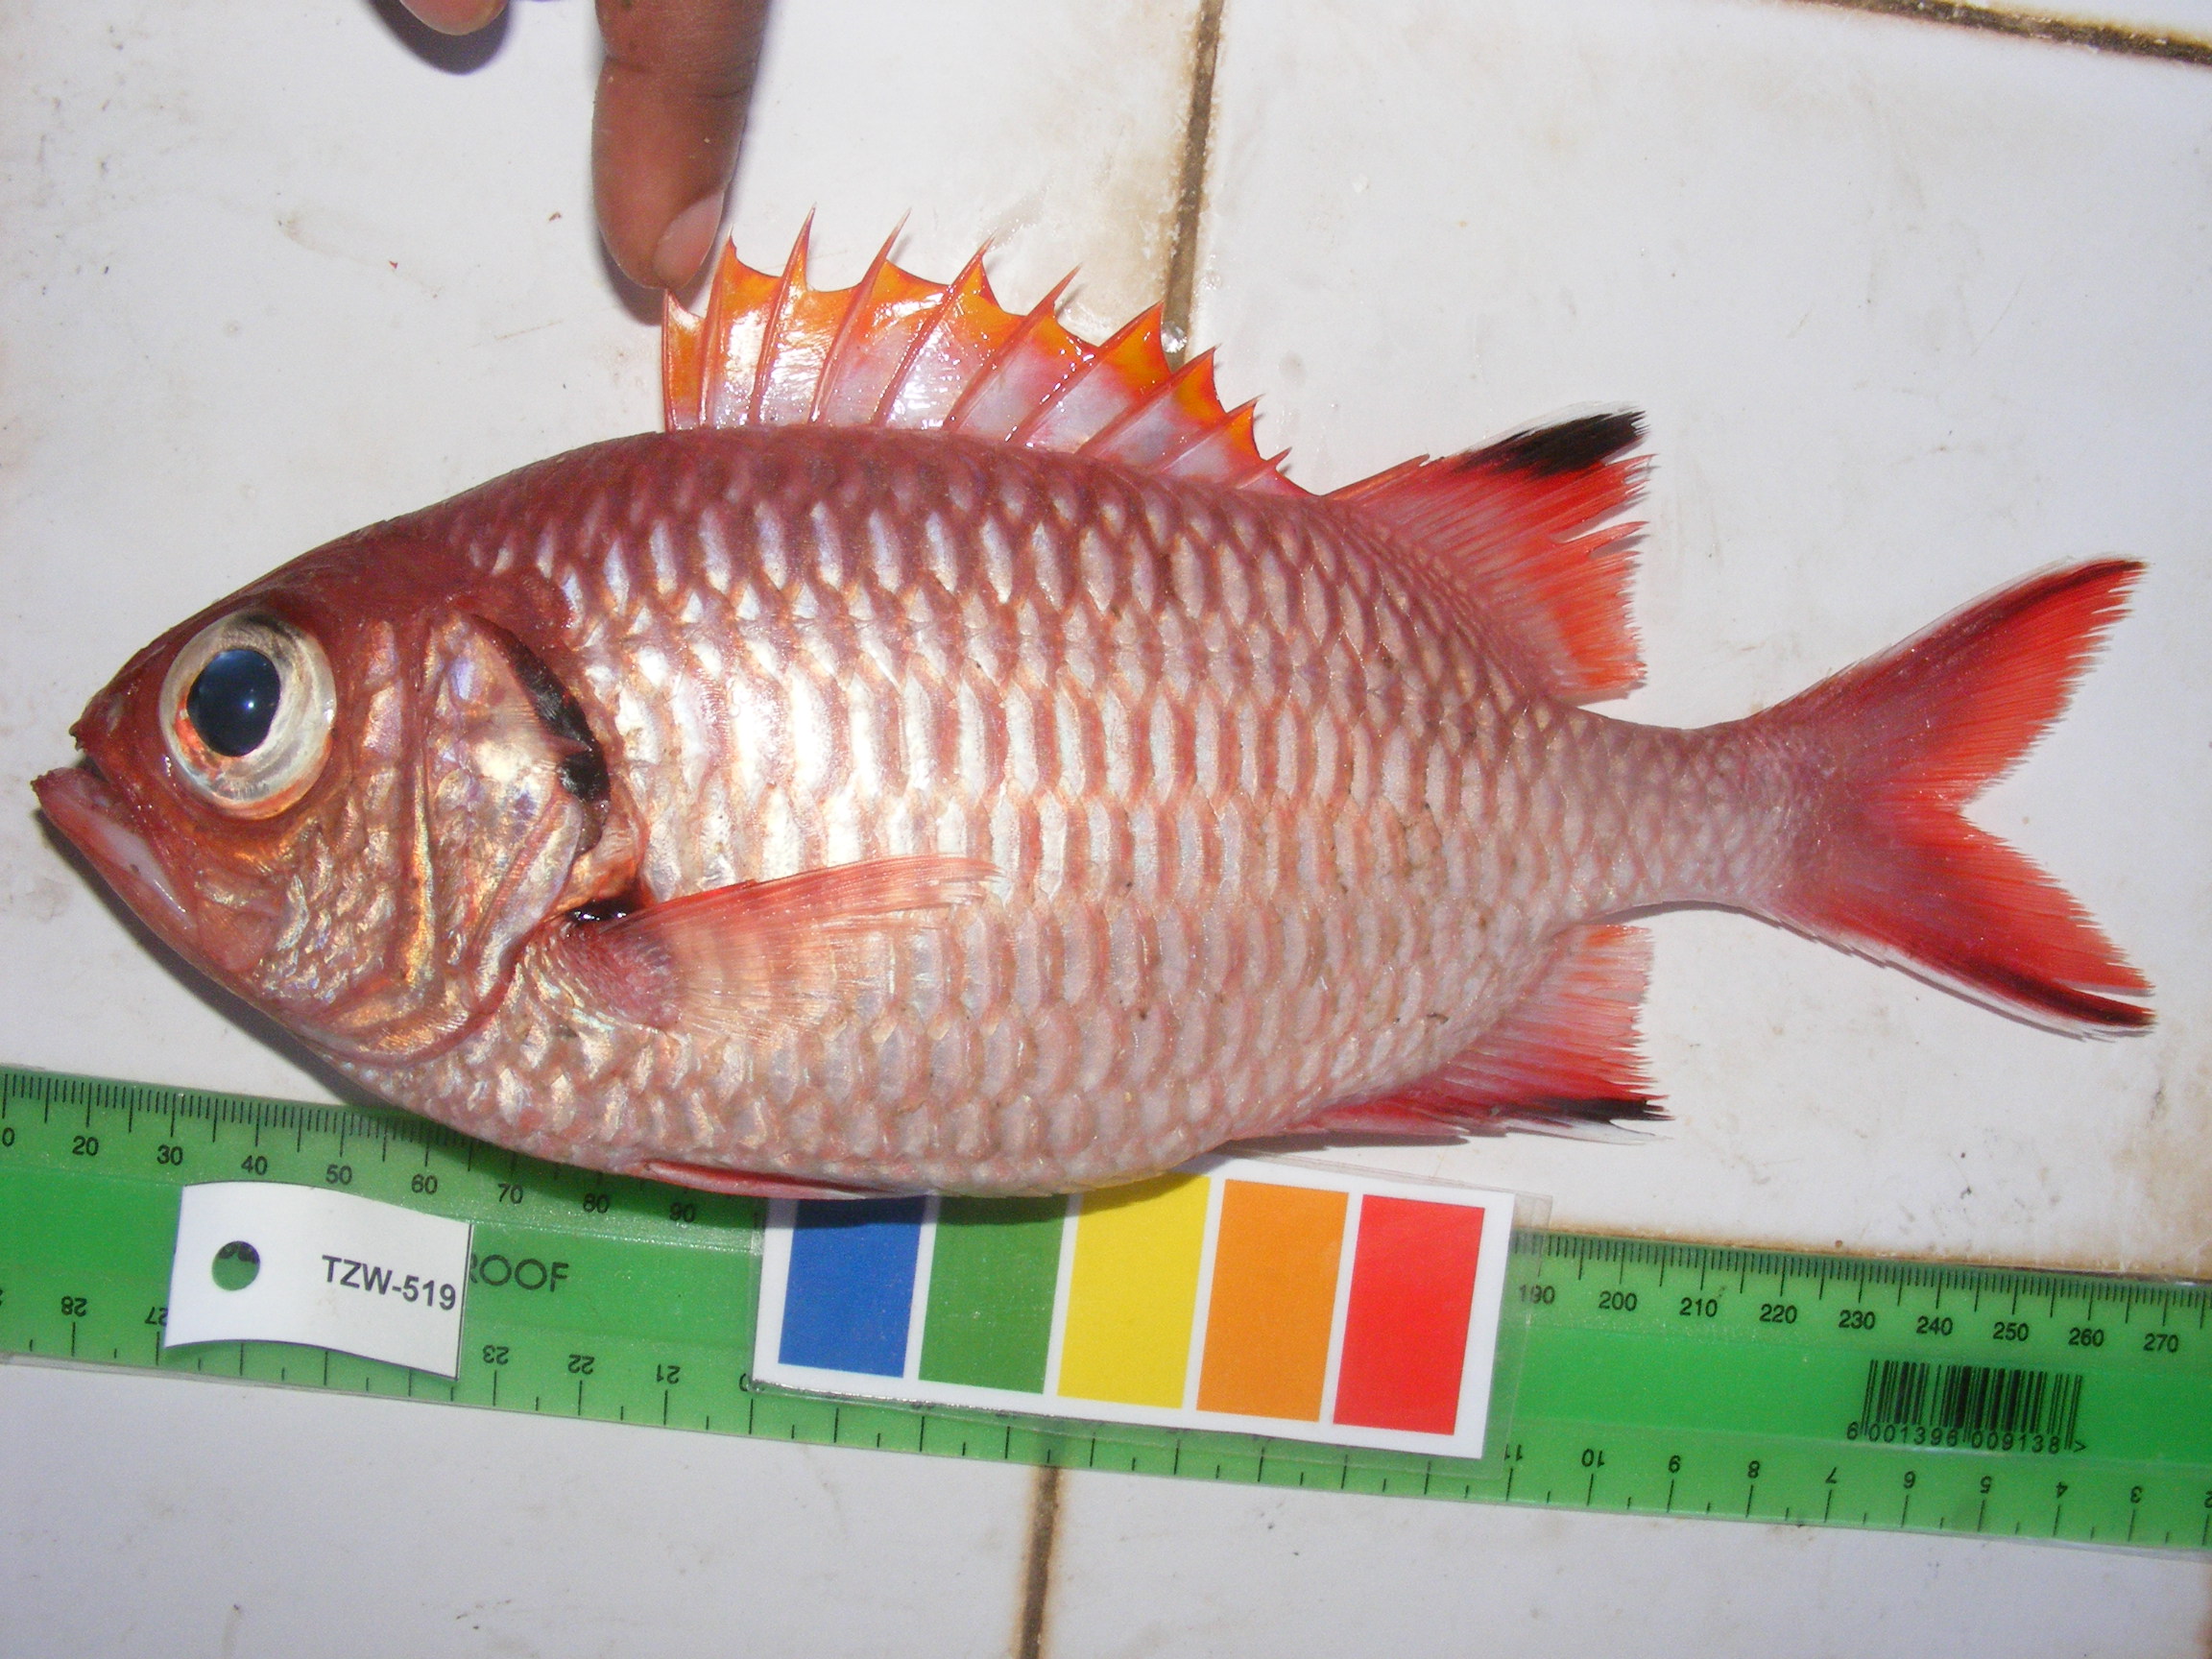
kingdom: Animalia
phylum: Chordata
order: Beryciformes
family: Holocentridae
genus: Myripristis
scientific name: Myripristis berndti
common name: Bigscale soldierfish
